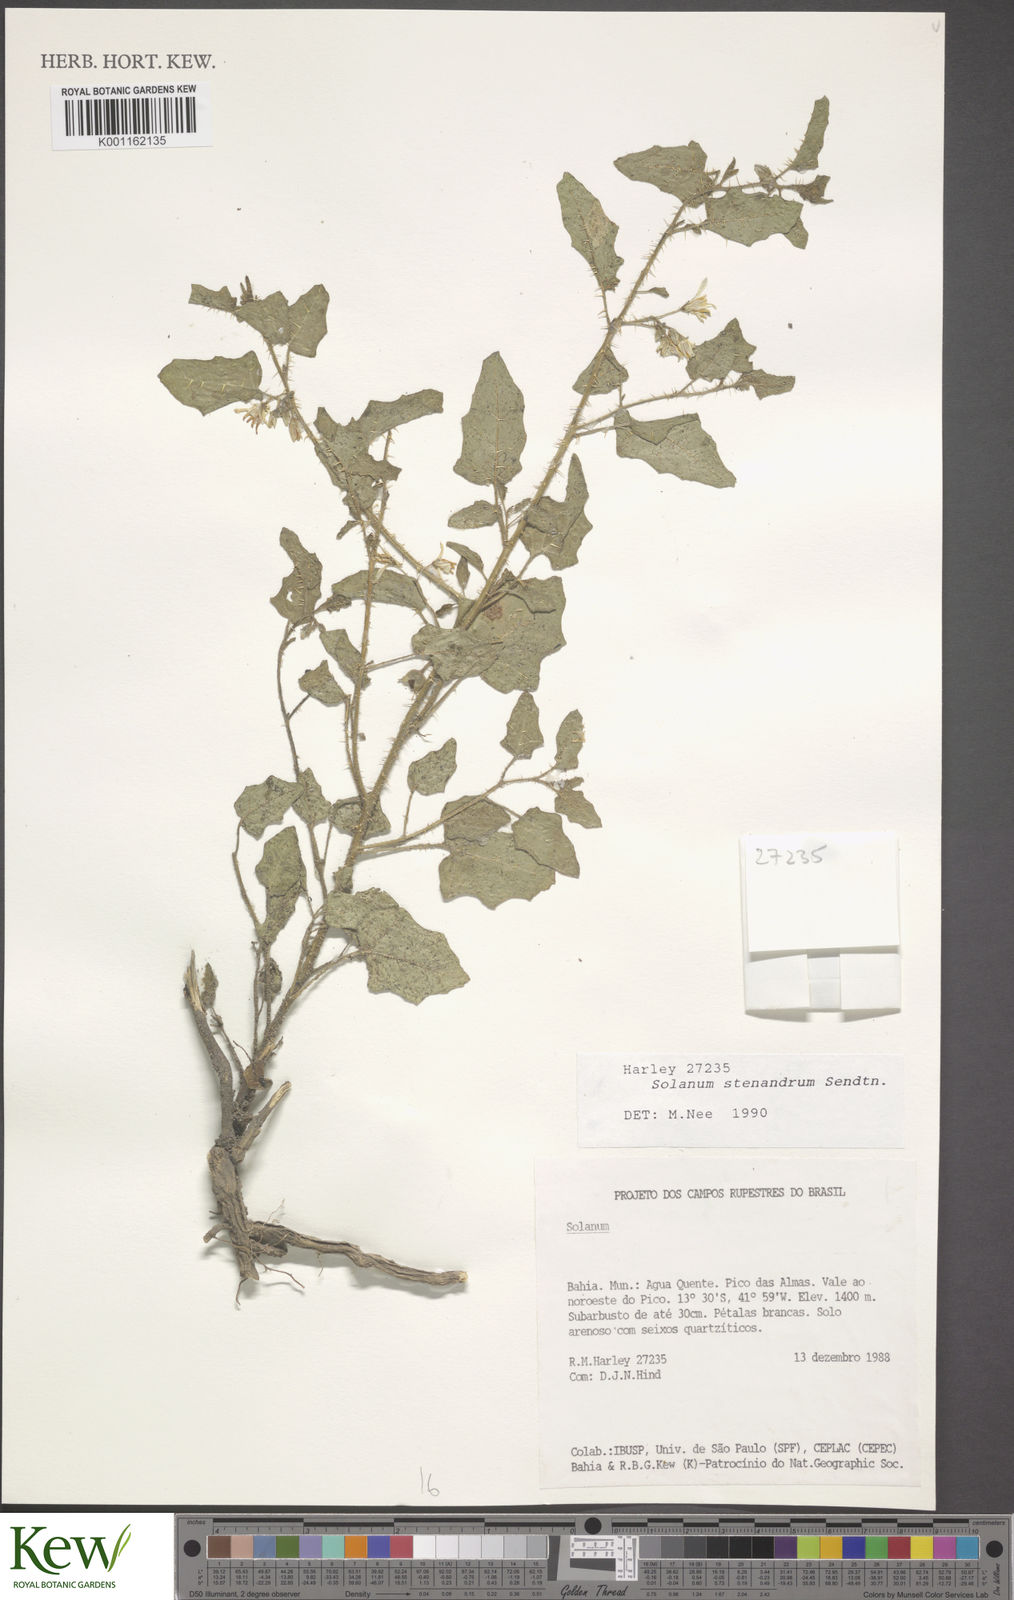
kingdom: Plantae
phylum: Tracheophyta
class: Magnoliopsida
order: Solanales
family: Solanaceae
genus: Solanum
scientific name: Solanum stenandrum
